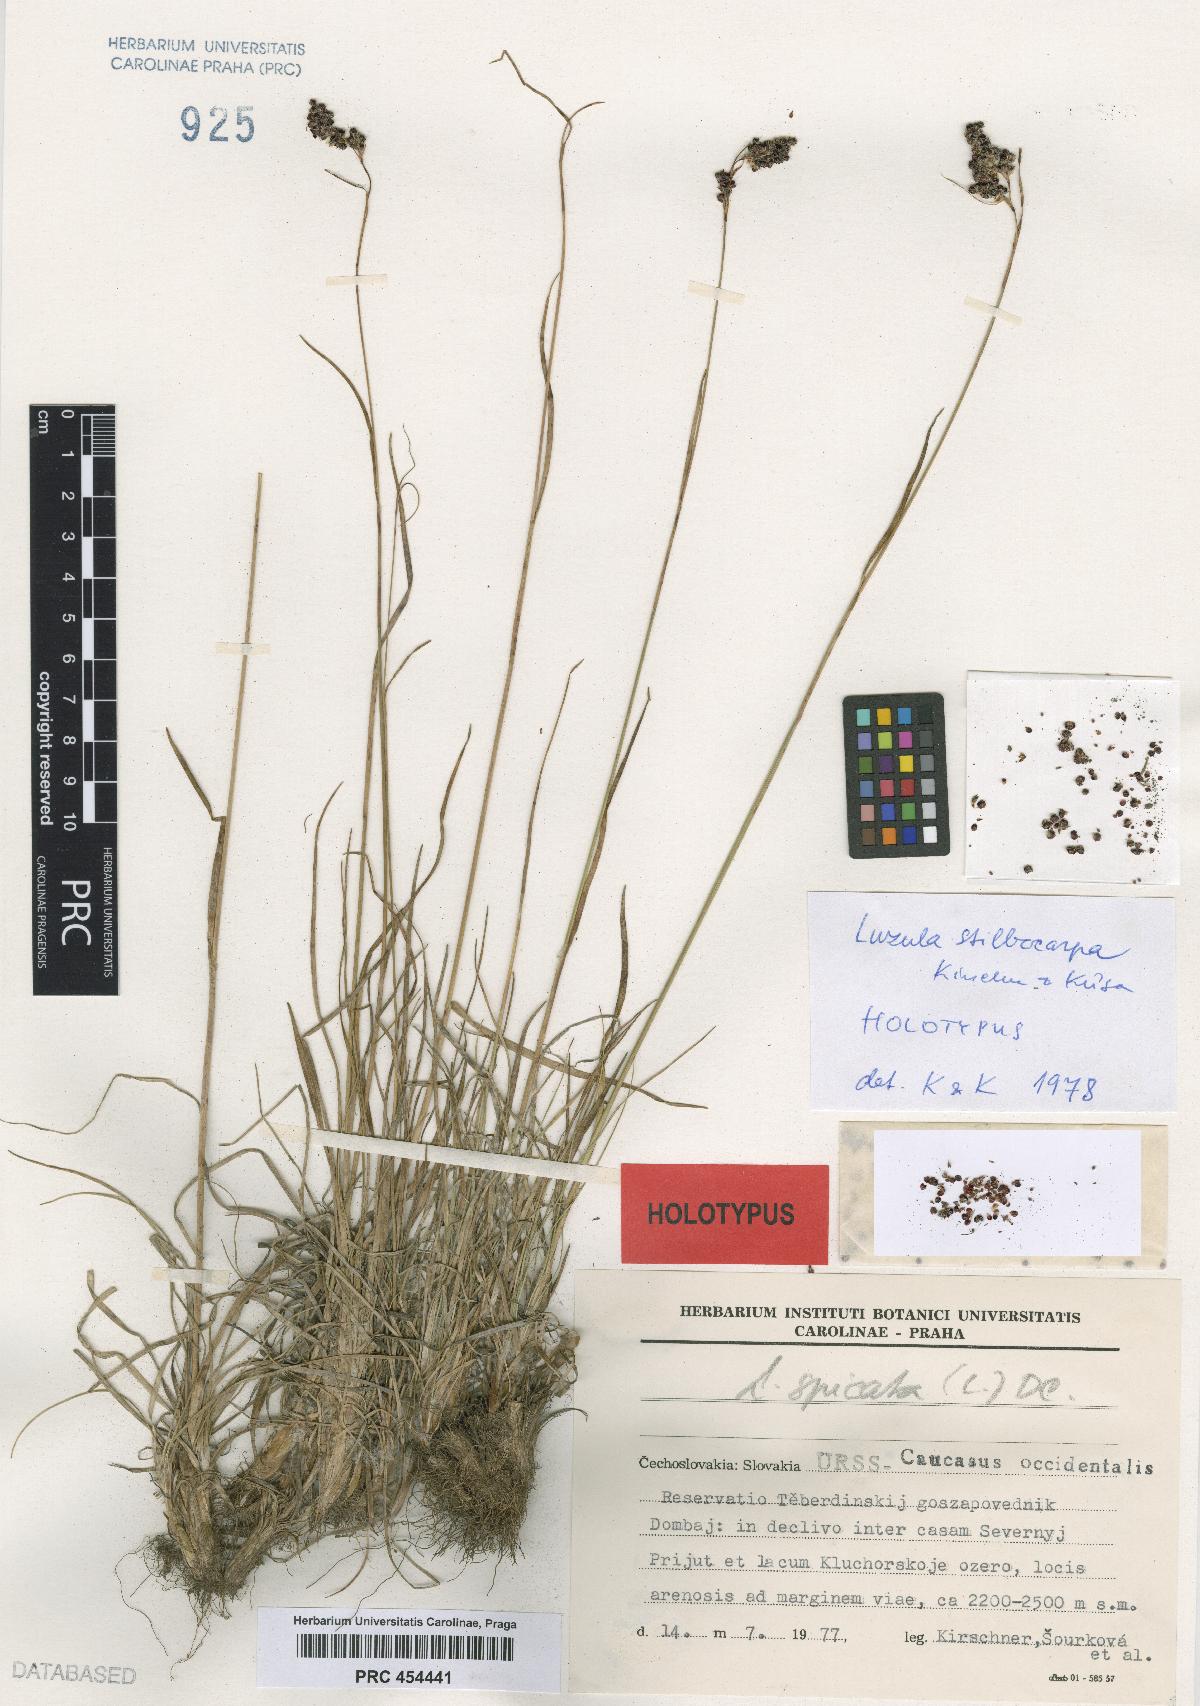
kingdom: Plantae
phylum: Tracheophyta
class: Liliopsida
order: Poales
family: Juncaceae
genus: Luzula
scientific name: Luzula spicata
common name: Spiked wood-rush
